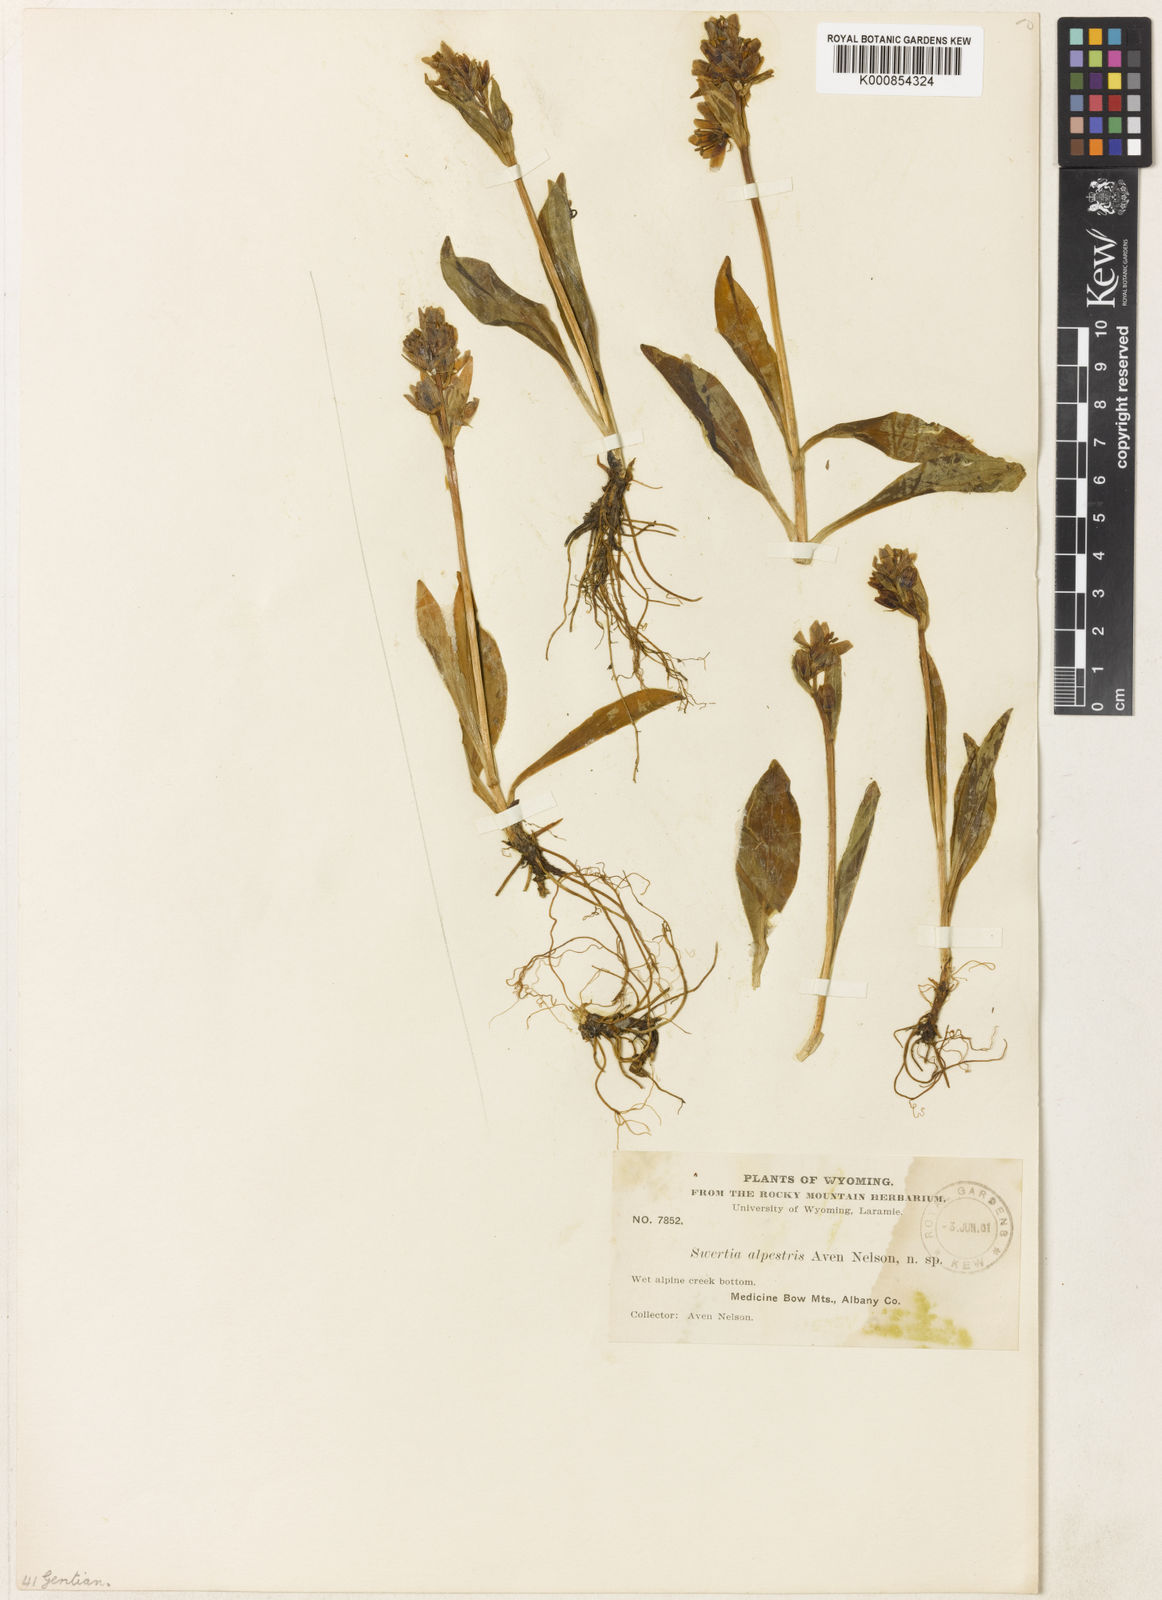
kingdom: Plantae
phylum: Tracheophyta
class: Magnoliopsida
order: Gentianales
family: Gentianaceae
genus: Swertia
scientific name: Swertia
